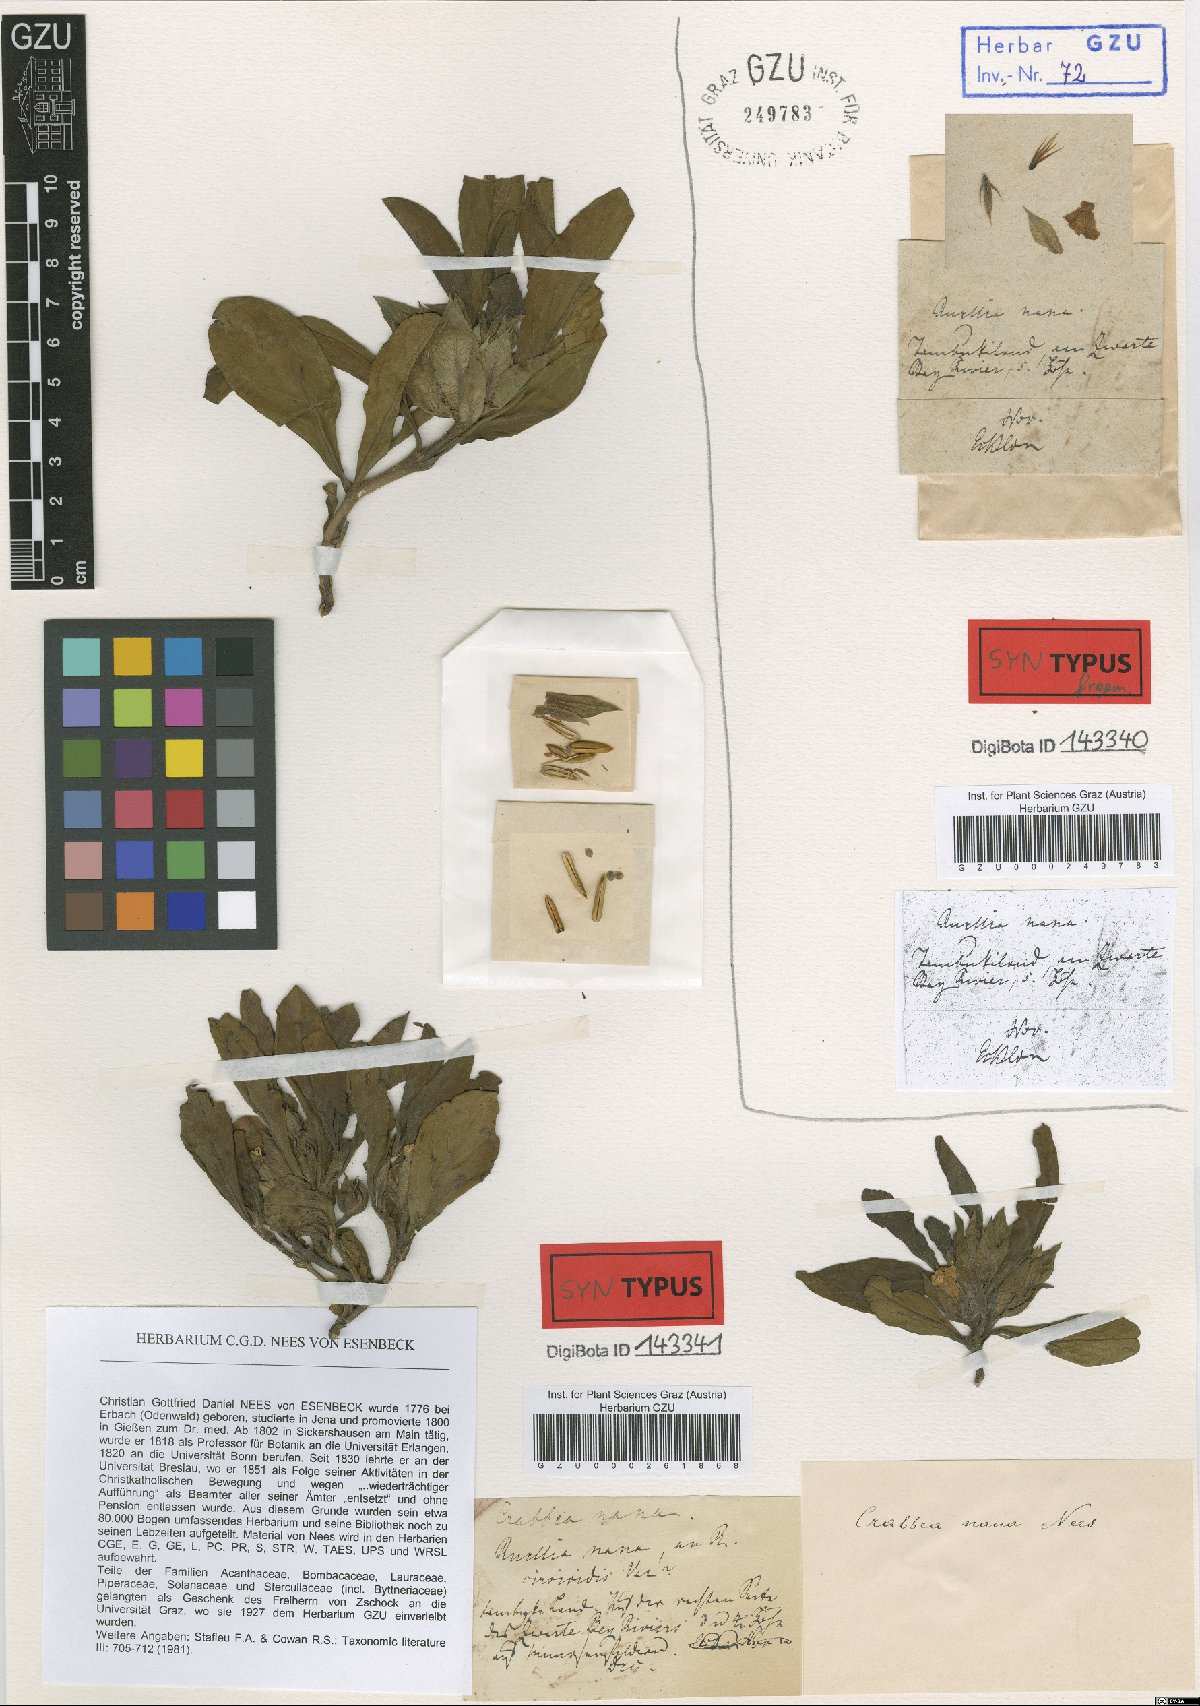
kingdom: Plantae
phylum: Tracheophyta
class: Magnoliopsida
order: Lamiales
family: Acanthaceae
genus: Crabbea
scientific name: Crabbea nana
